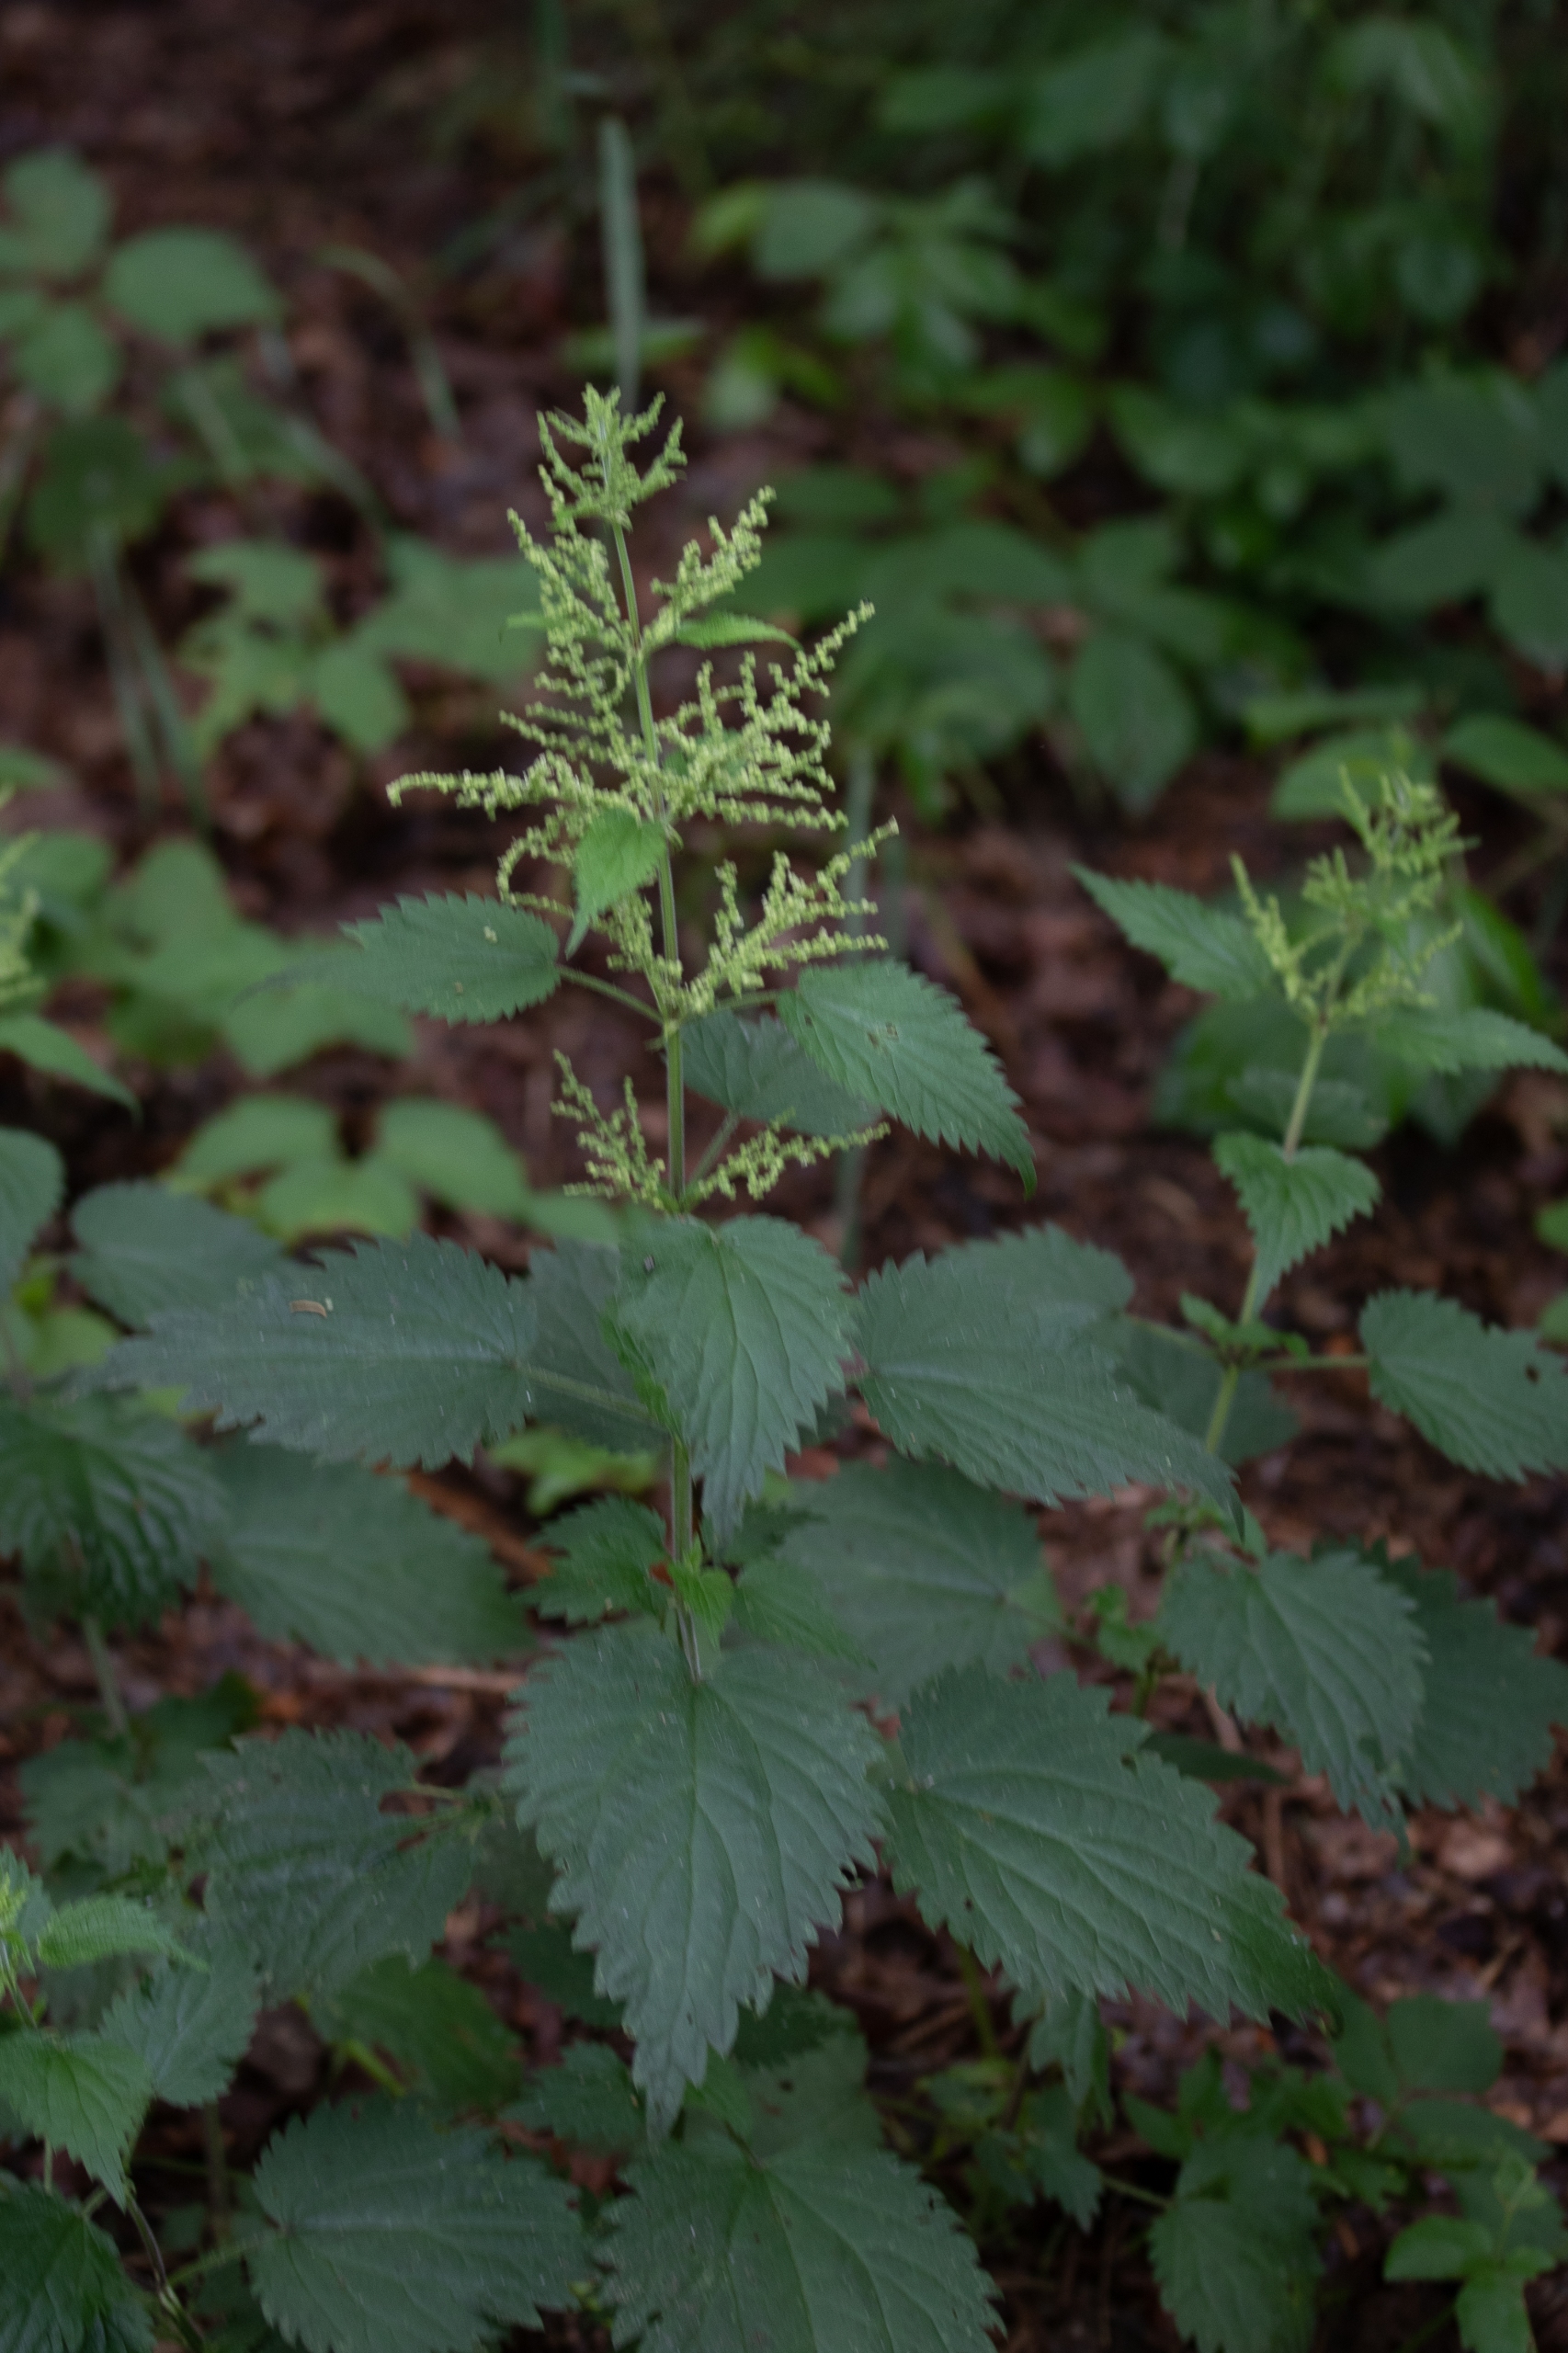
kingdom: Plantae
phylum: Tracheophyta
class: Magnoliopsida
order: Rosales
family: Urticaceae
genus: Urtica
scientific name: Urtica dioica
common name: Stor nælde
